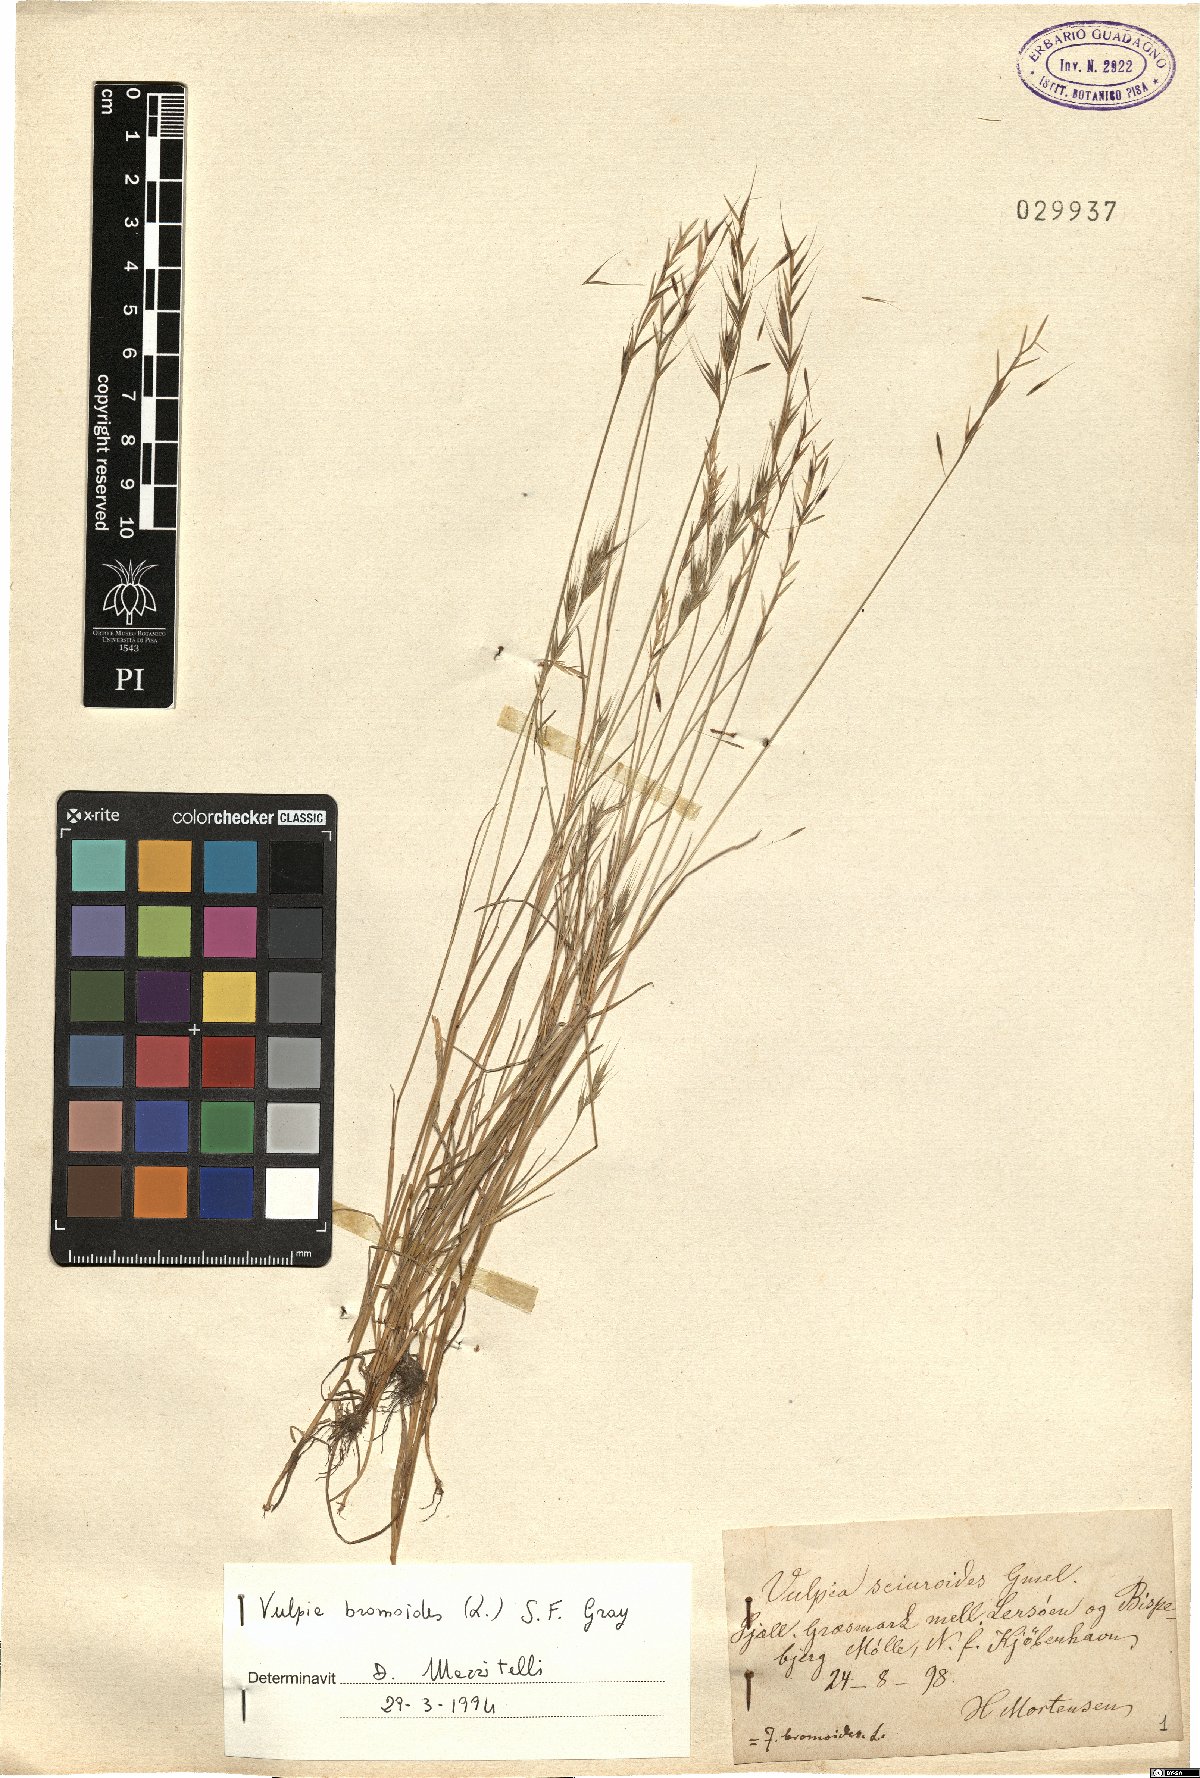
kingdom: Plantae
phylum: Tracheophyta
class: Liliopsida
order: Poales
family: Poaceae
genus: Festuca
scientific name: Festuca bromoides
